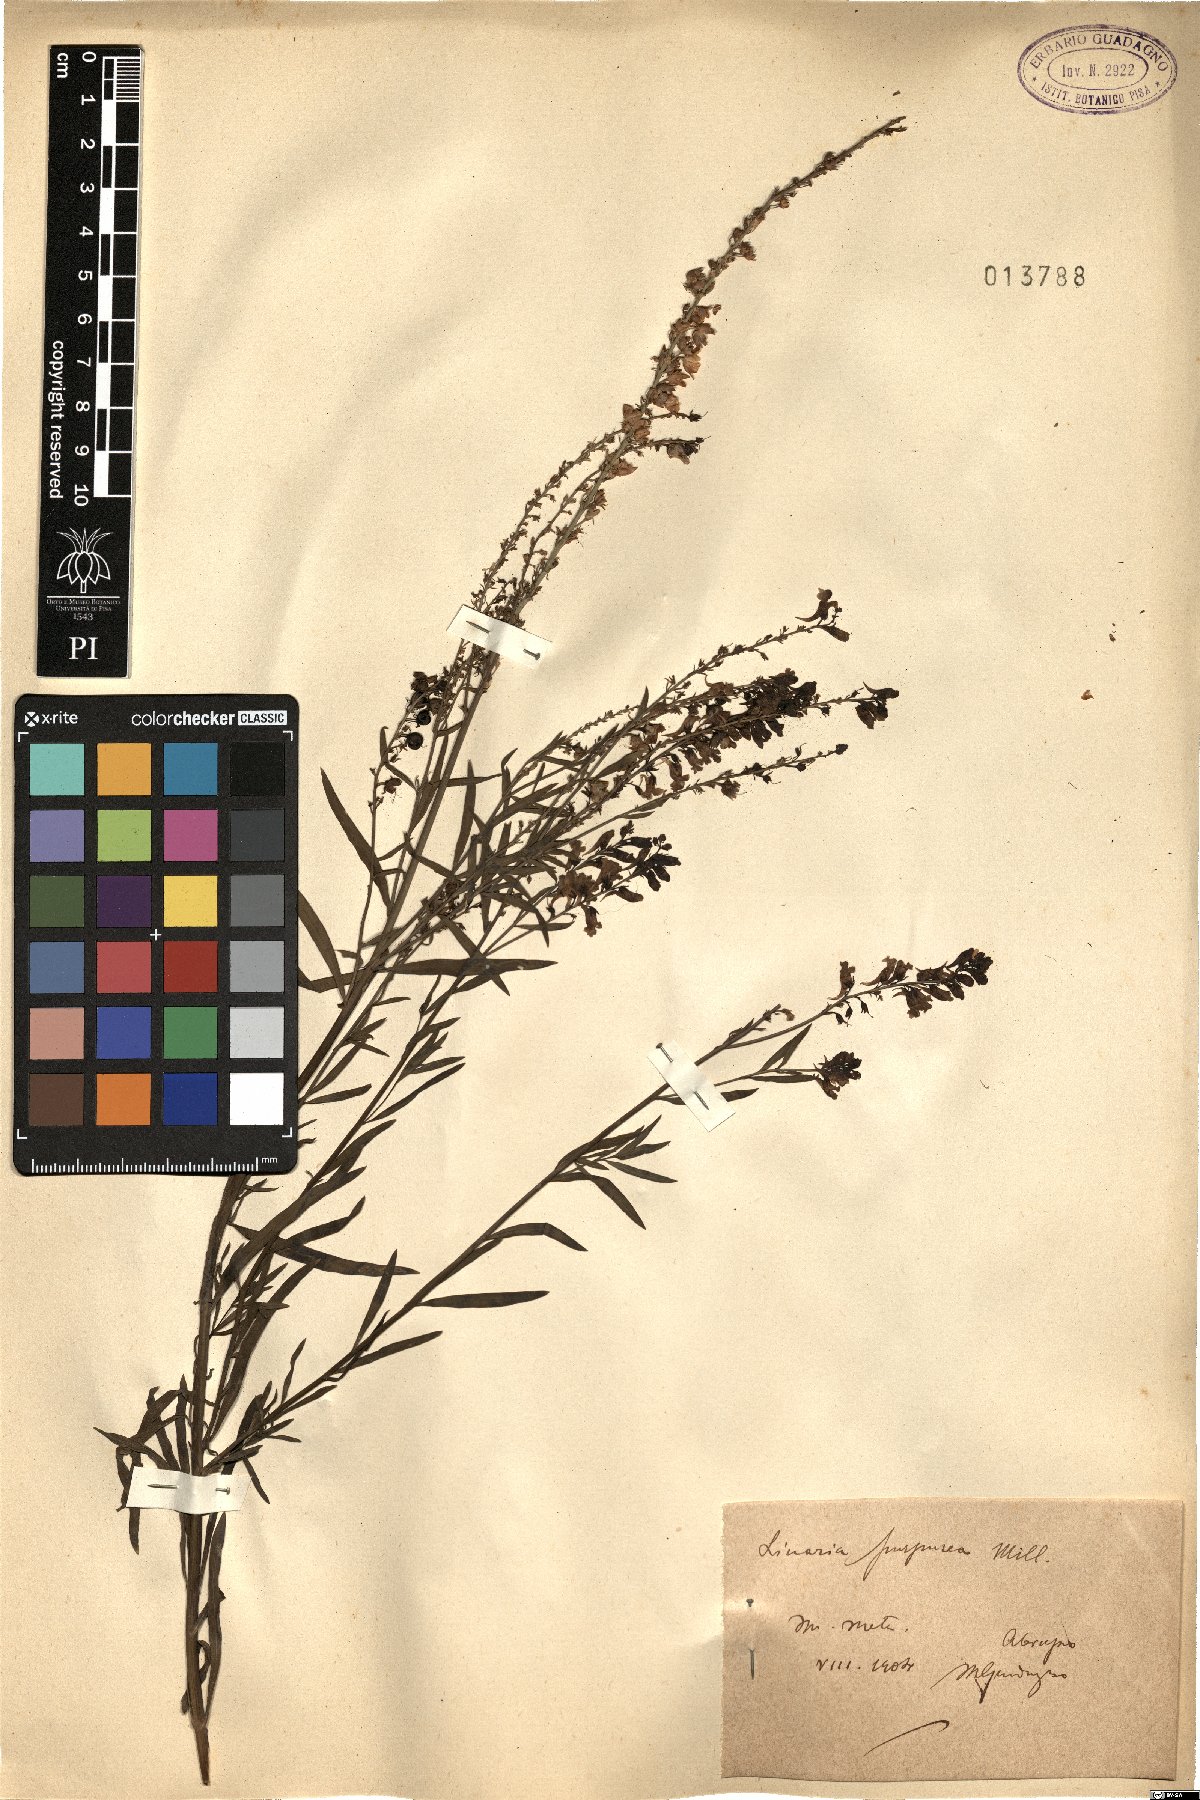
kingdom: Plantae
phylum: Tracheophyta
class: Magnoliopsida
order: Lamiales
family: Plantaginaceae
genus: Linaria
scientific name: Linaria purpurea
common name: Purple toadflax
